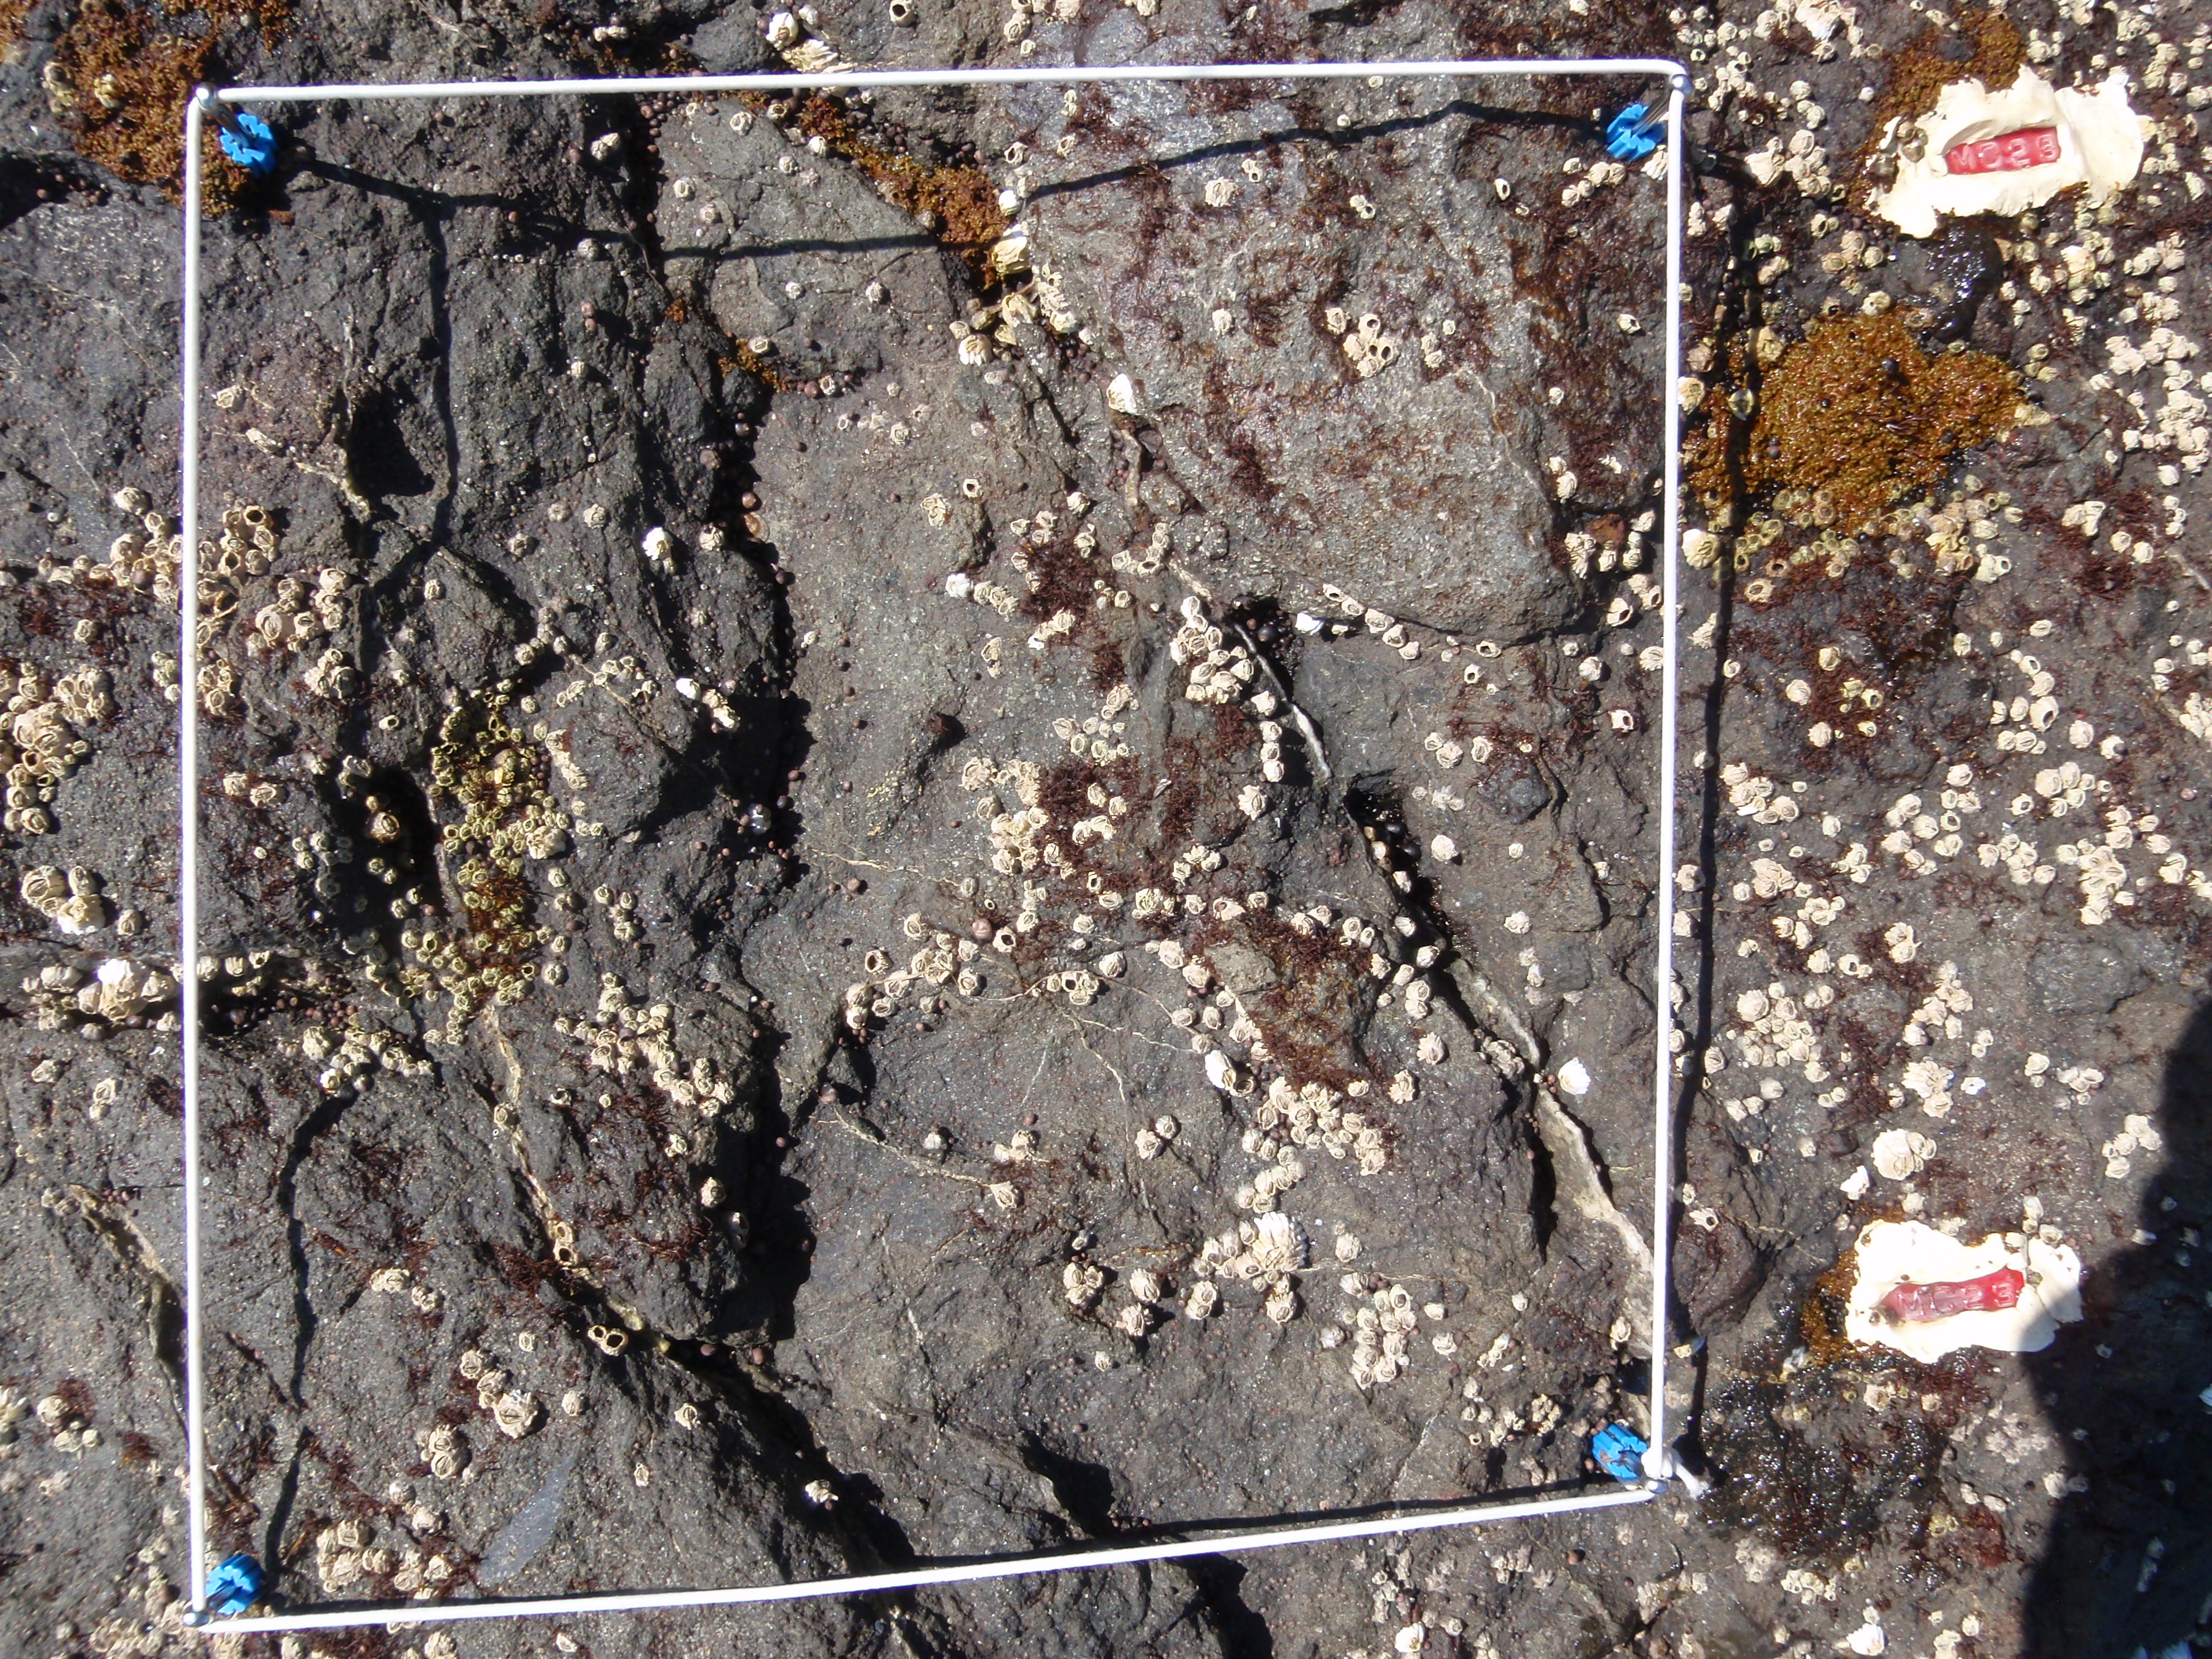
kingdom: Plantae
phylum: Rhodophyta
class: Florideophyceae
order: Gigartinales
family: Endocladiaceae
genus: Gloiopeltis
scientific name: Gloiopeltis furcata
